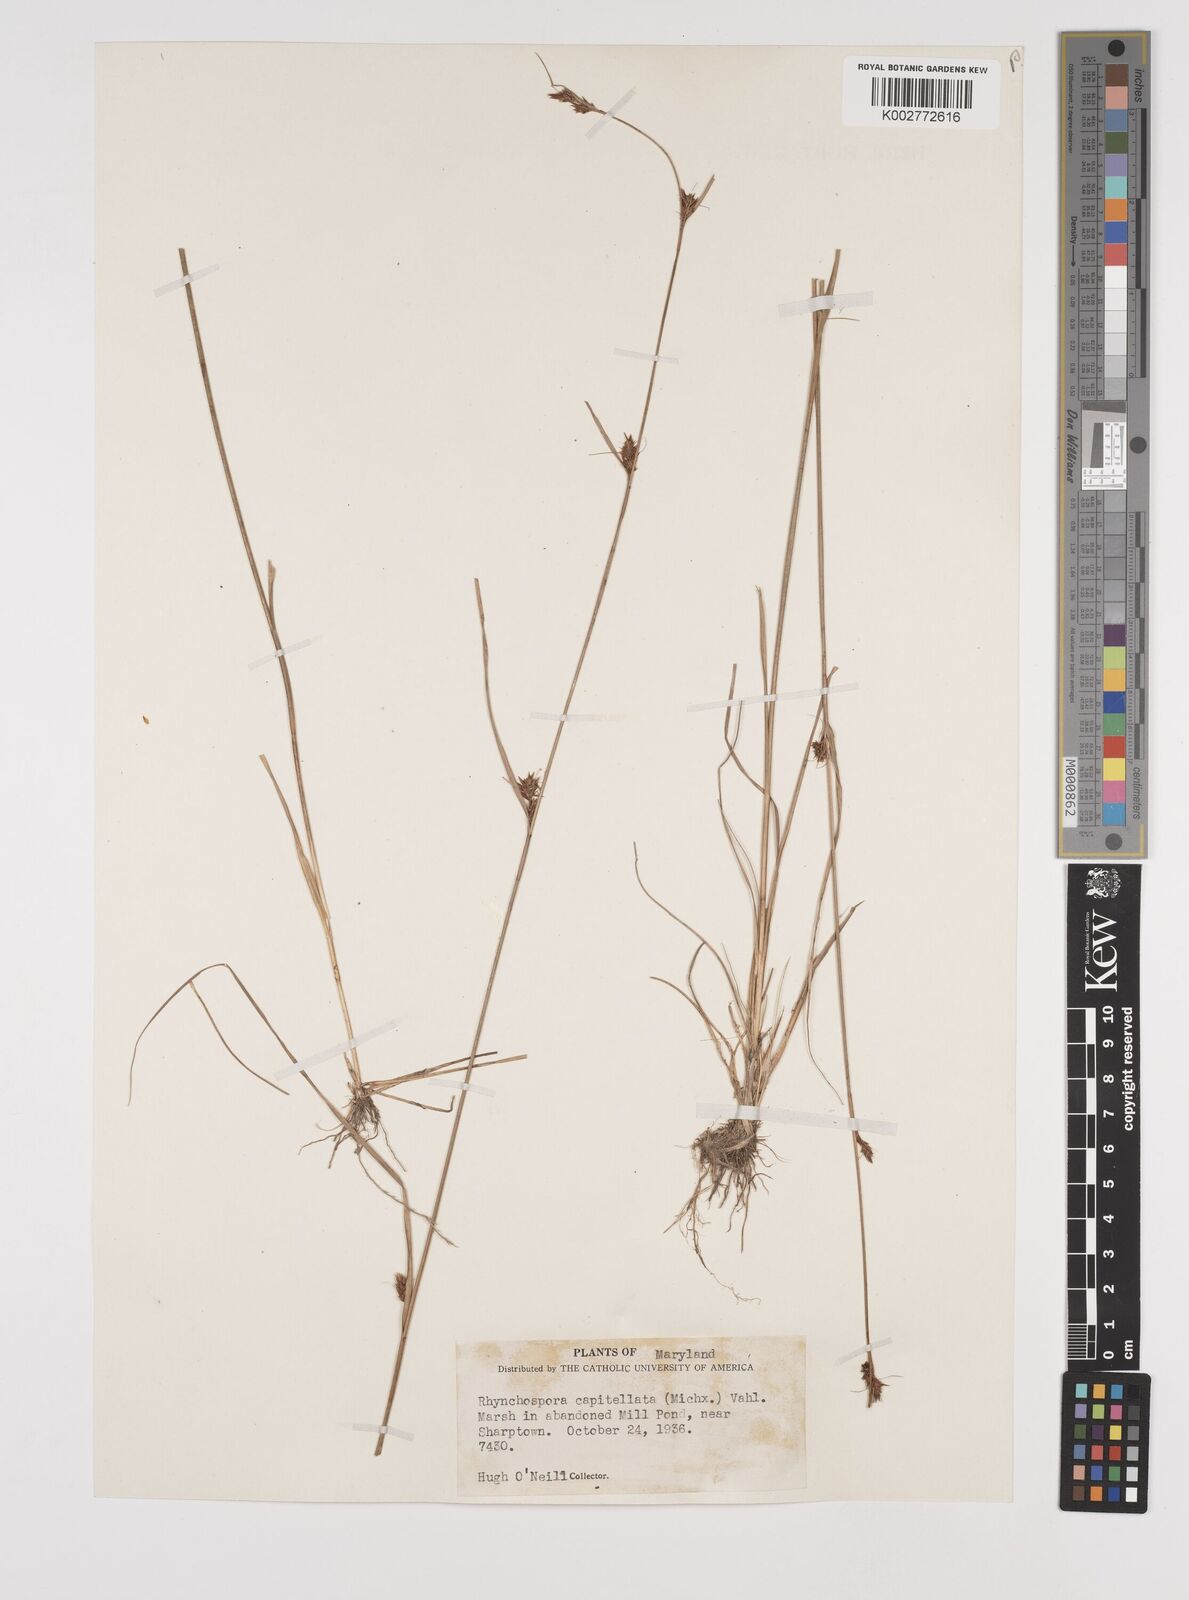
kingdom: Plantae
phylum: Tracheophyta
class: Liliopsida
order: Poales
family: Cyperaceae
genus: Rhynchospora
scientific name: Rhynchospora capitellata
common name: Brownish beaksedge
